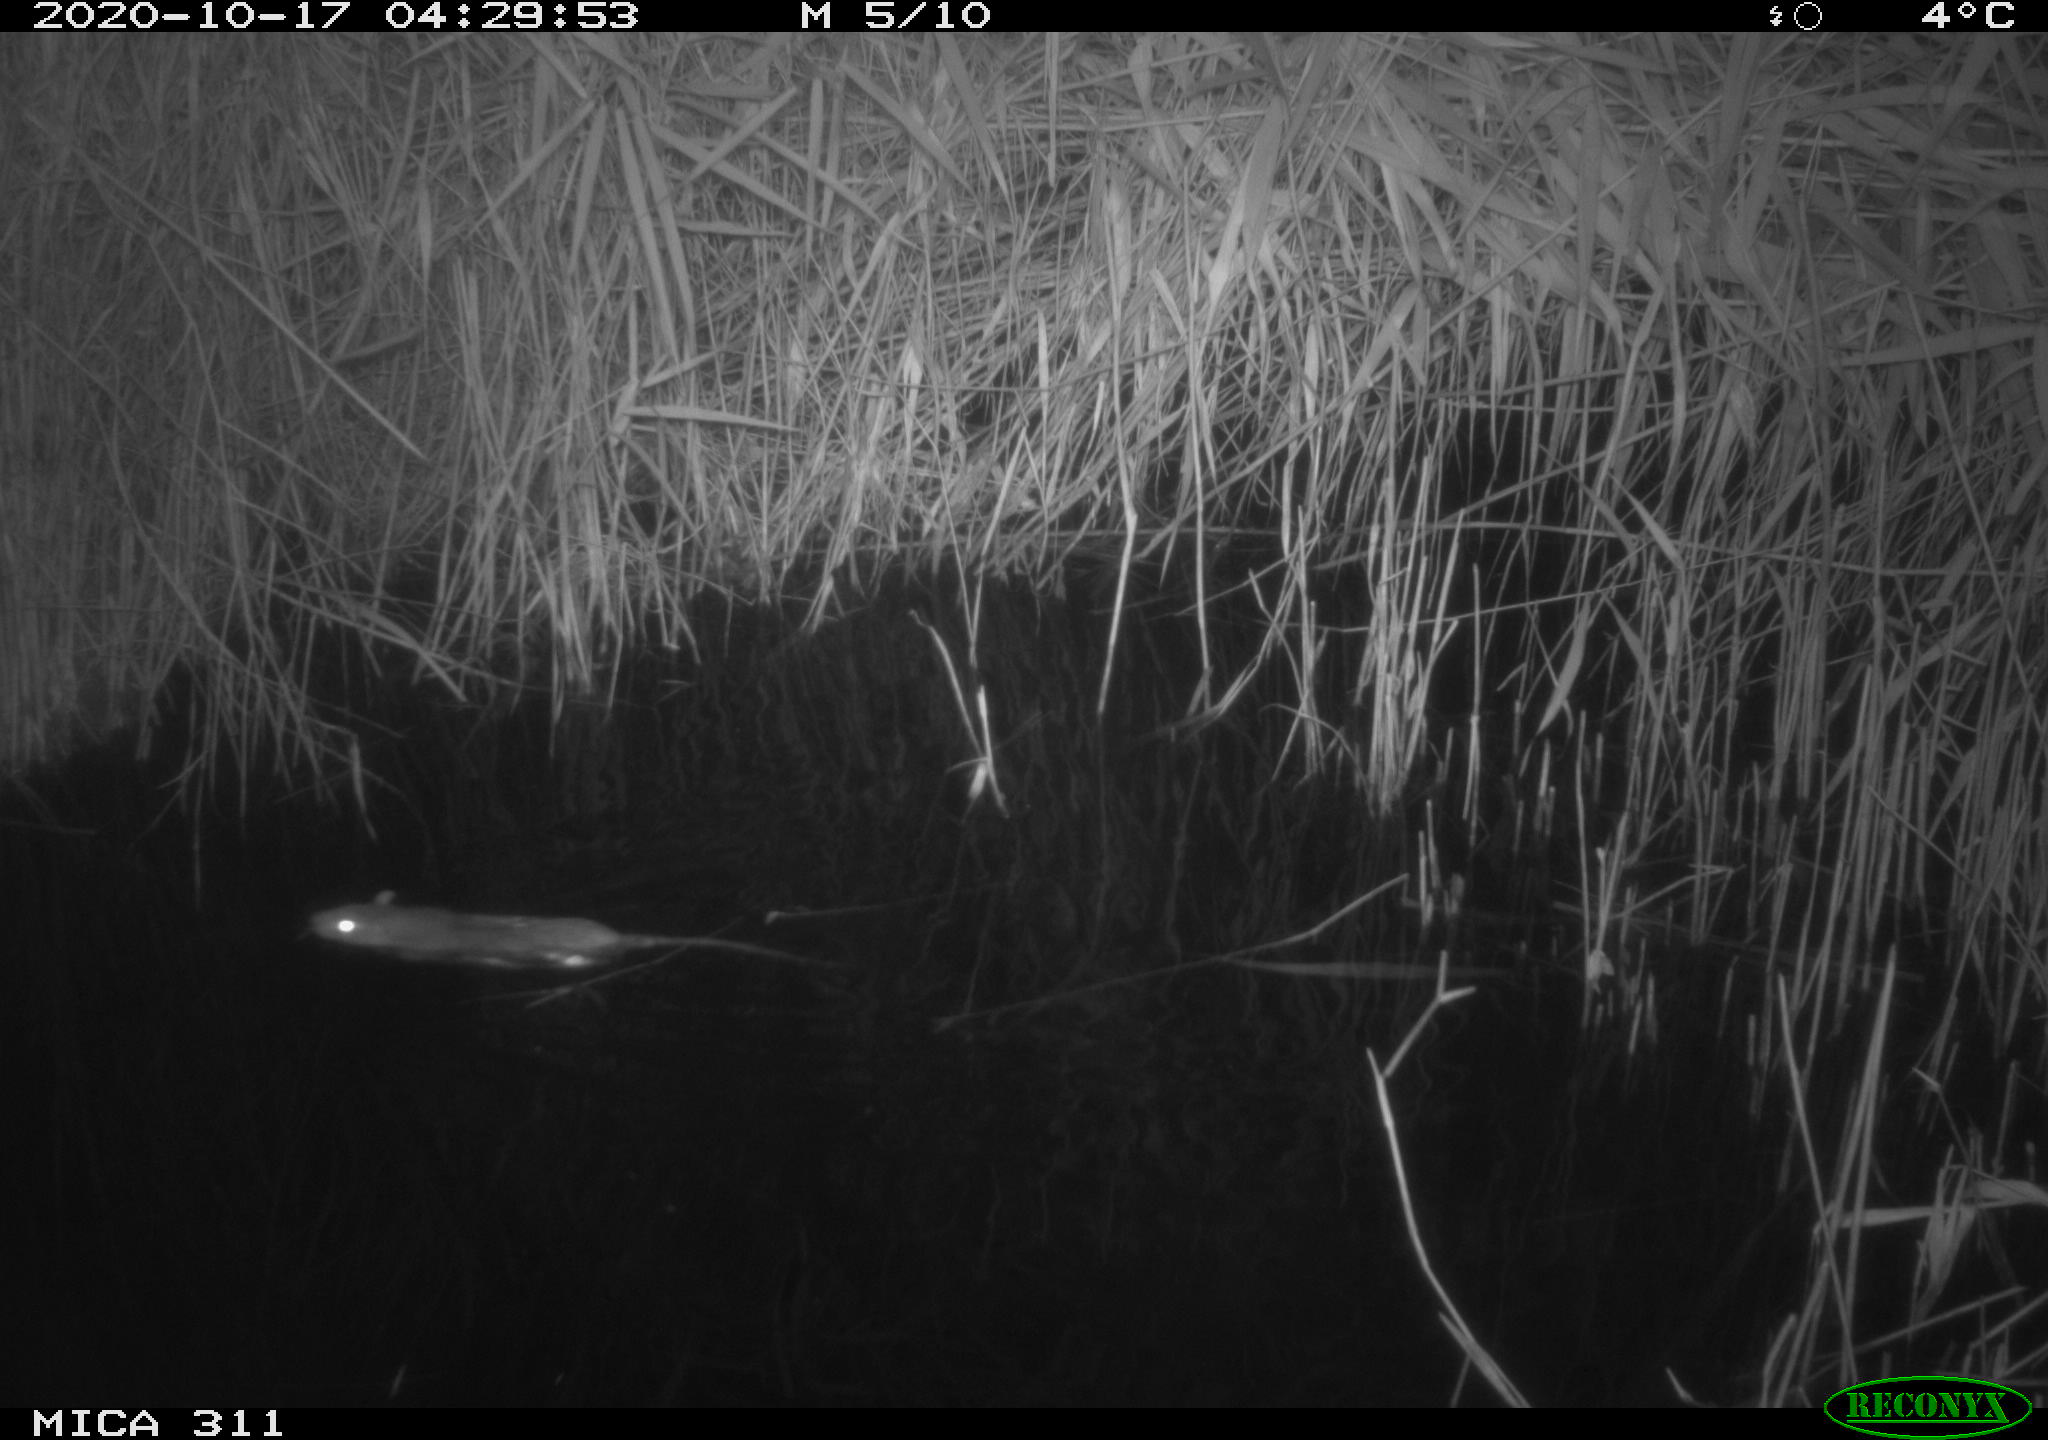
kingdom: Animalia
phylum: Chordata
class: Mammalia
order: Rodentia
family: Muridae
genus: Rattus
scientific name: Rattus norvegicus
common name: Brown rat
